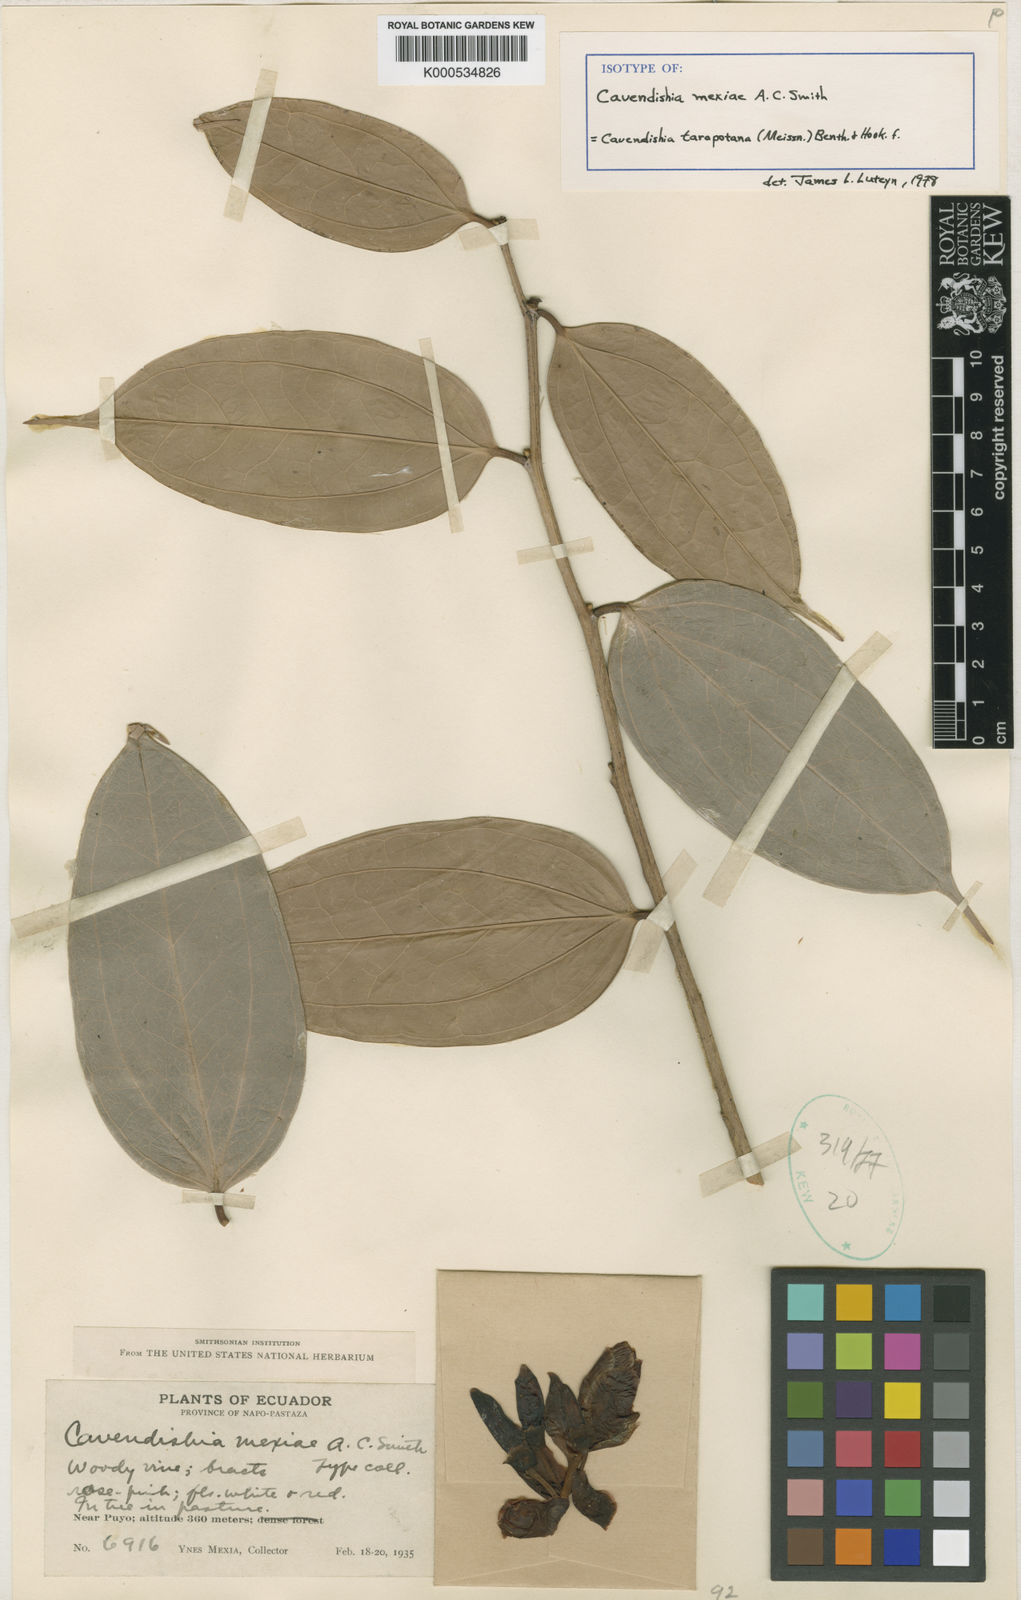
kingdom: Plantae
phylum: Tracheophyta
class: Magnoliopsida
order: Ericales
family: Ericaceae
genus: Cavendishia
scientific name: Cavendishia tarapotana
